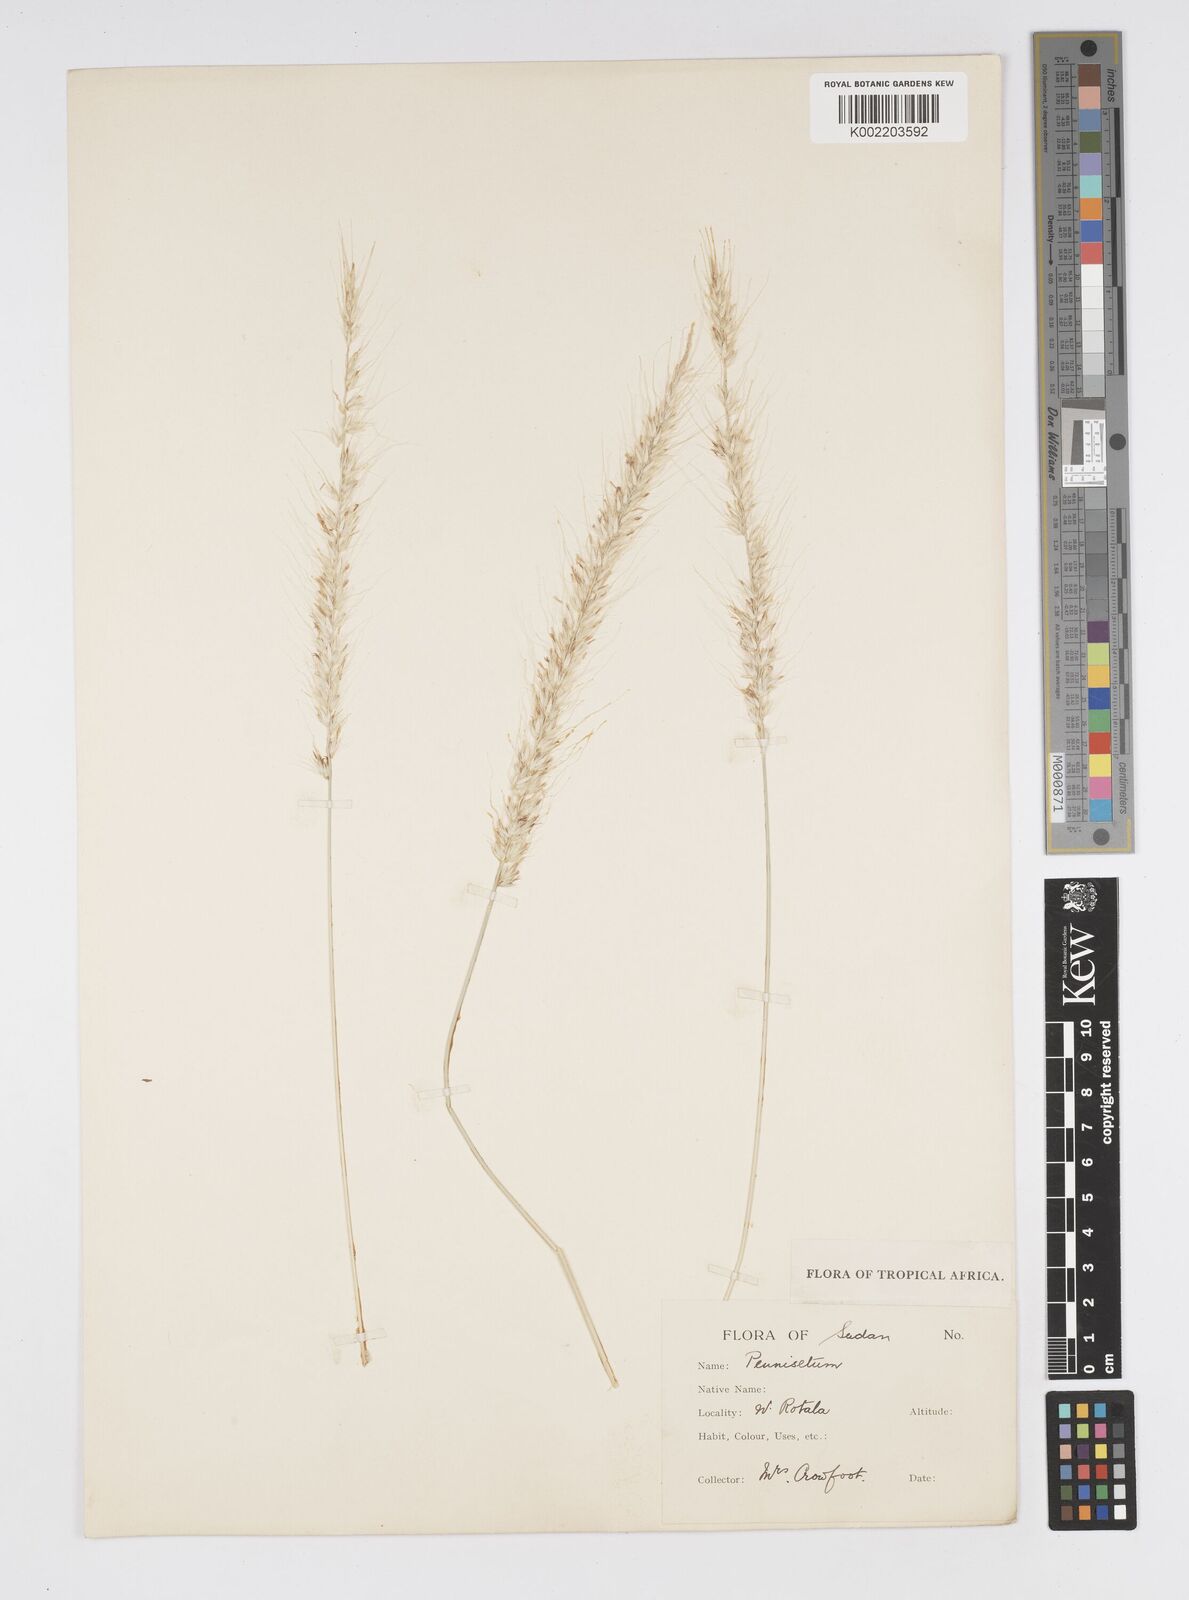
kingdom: Plantae
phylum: Tracheophyta
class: Liliopsida
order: Poales
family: Poaceae
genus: Cenchrus
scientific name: Cenchrus setaceus
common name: Crimson fountaingrass
